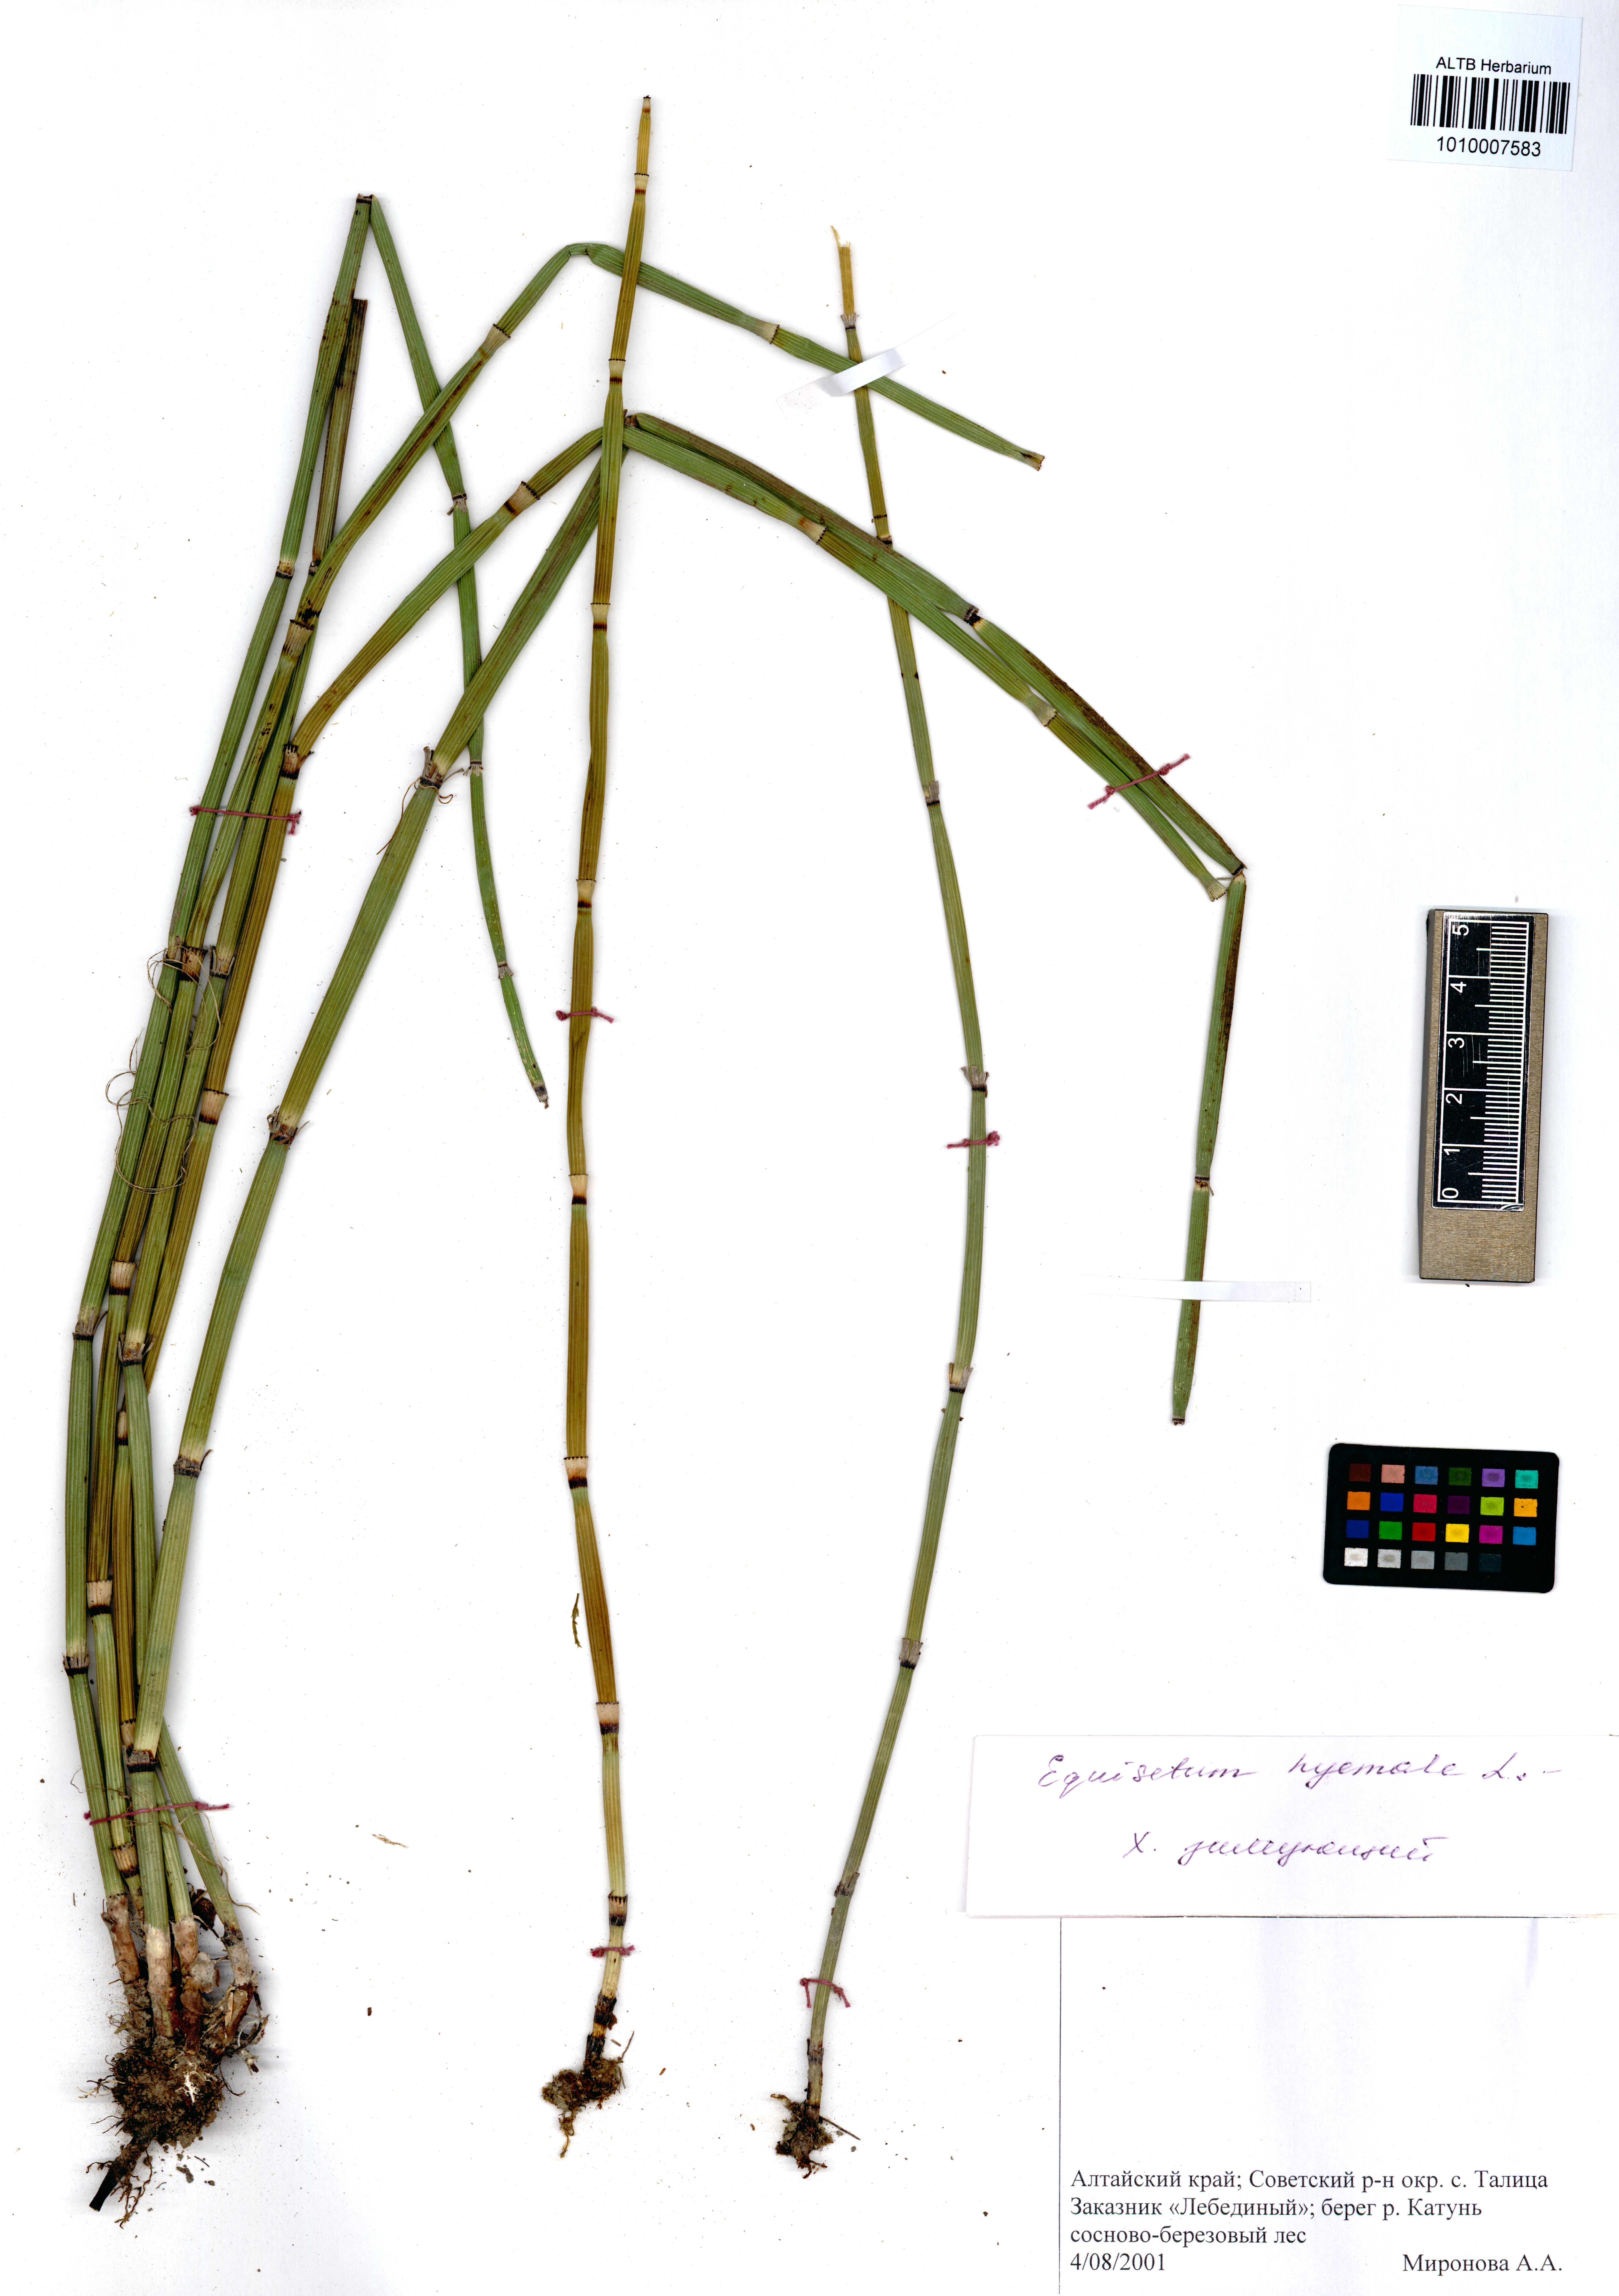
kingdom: Plantae
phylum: Tracheophyta
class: Polypodiopsida
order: Equisetales
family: Equisetaceae
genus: Equisetum
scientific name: Equisetum hyemale
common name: Rough horsetail
